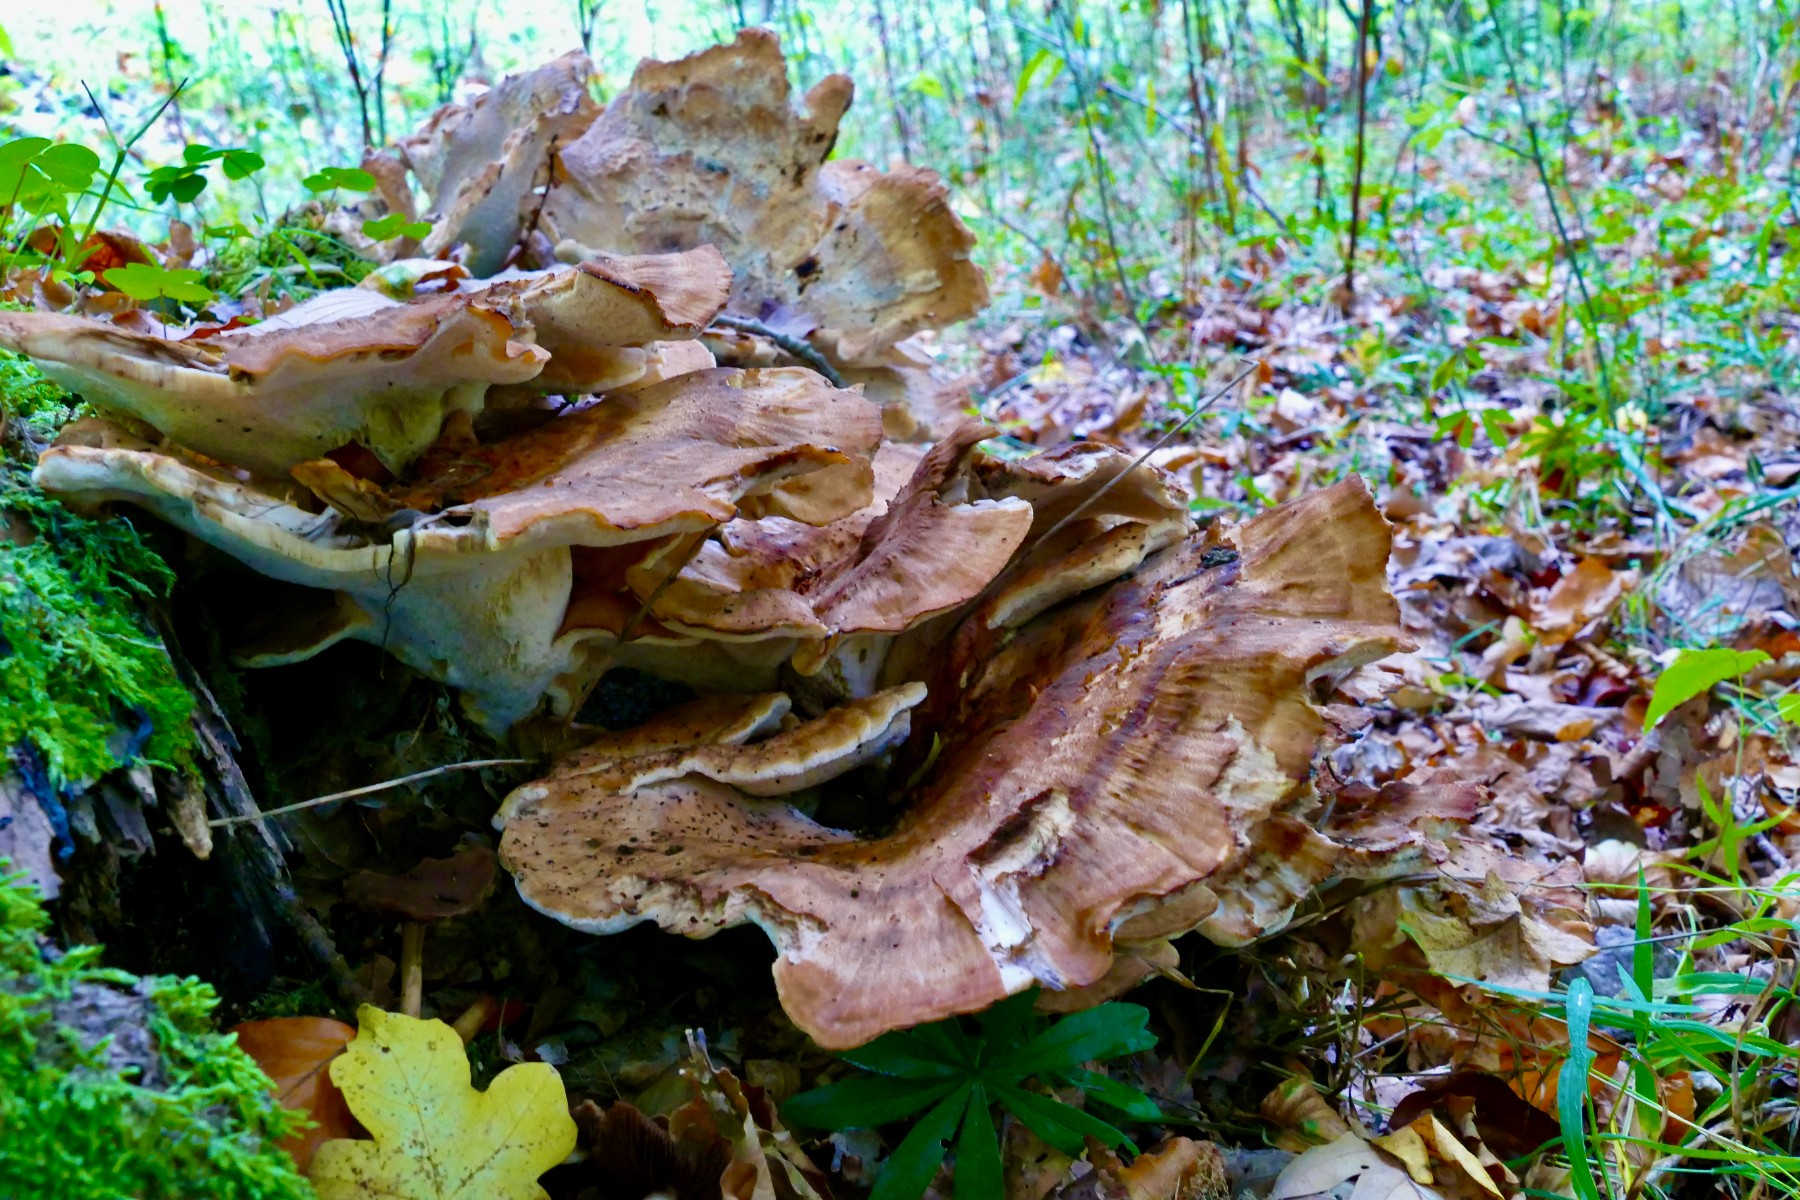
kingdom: Fungi
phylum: Basidiomycota
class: Agaricomycetes
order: Polyporales
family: Meripilaceae
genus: Meripilus
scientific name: Meripilus giganteus
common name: kæmpeporesvamp
